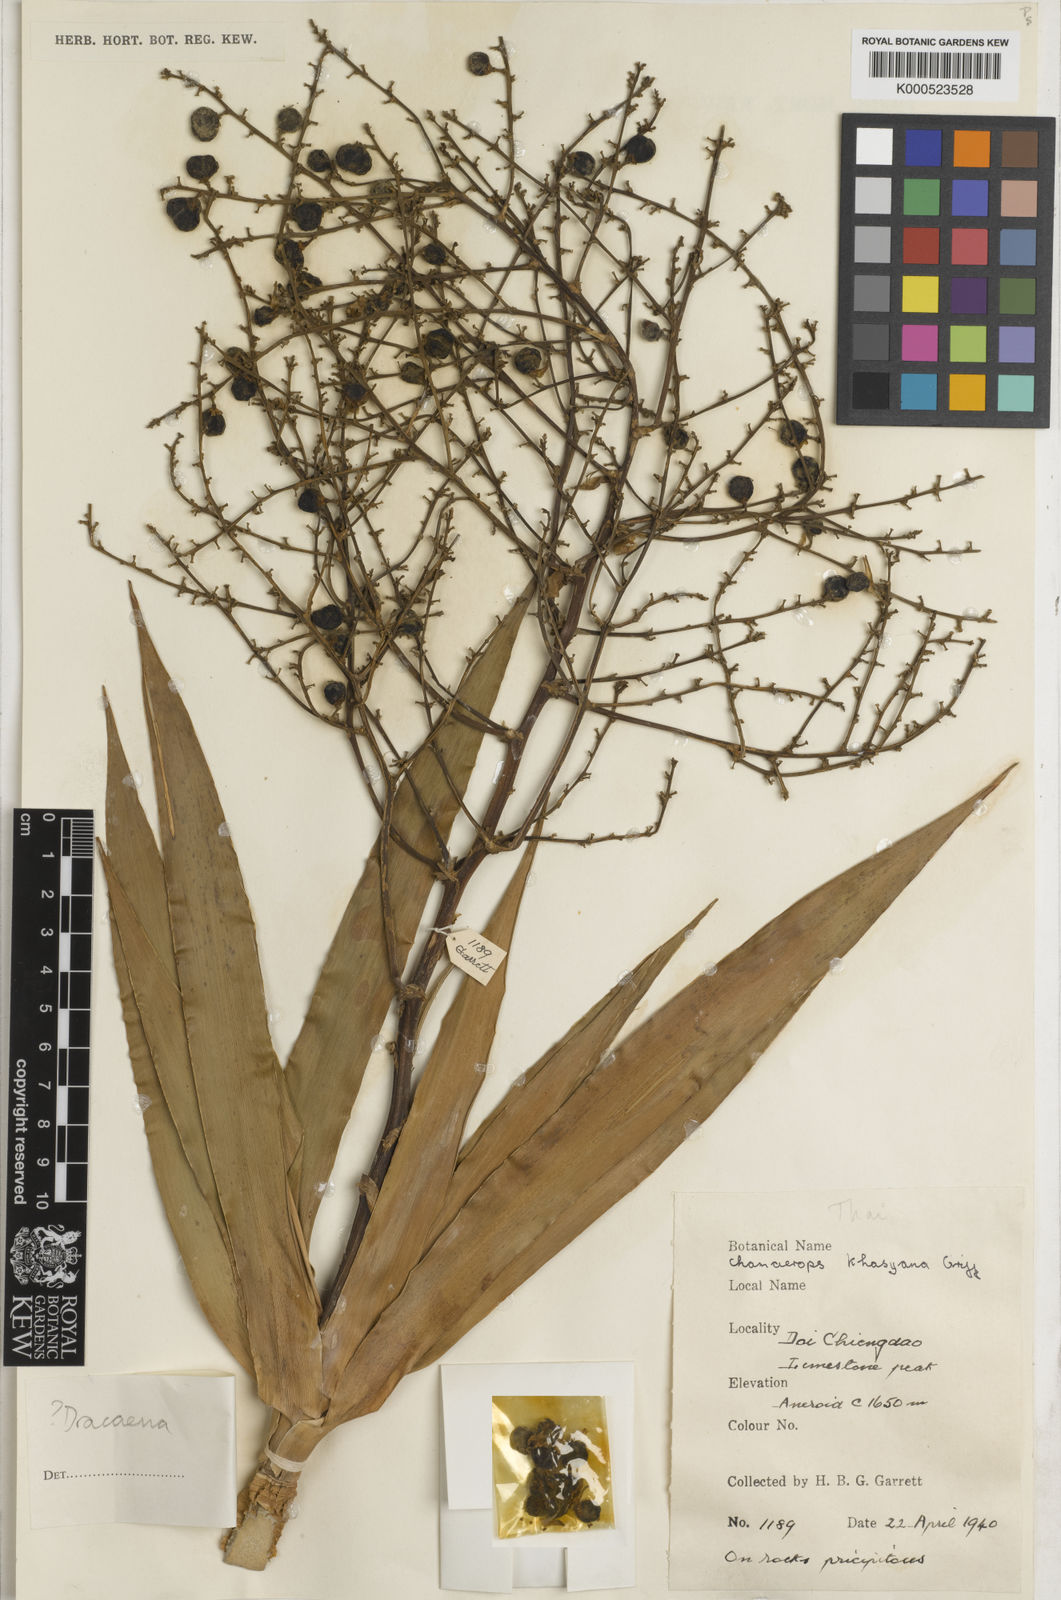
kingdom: Plantae
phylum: Tracheophyta
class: Liliopsida
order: Asparagales
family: Asparagaceae
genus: Dracaena
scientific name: Dracaena
